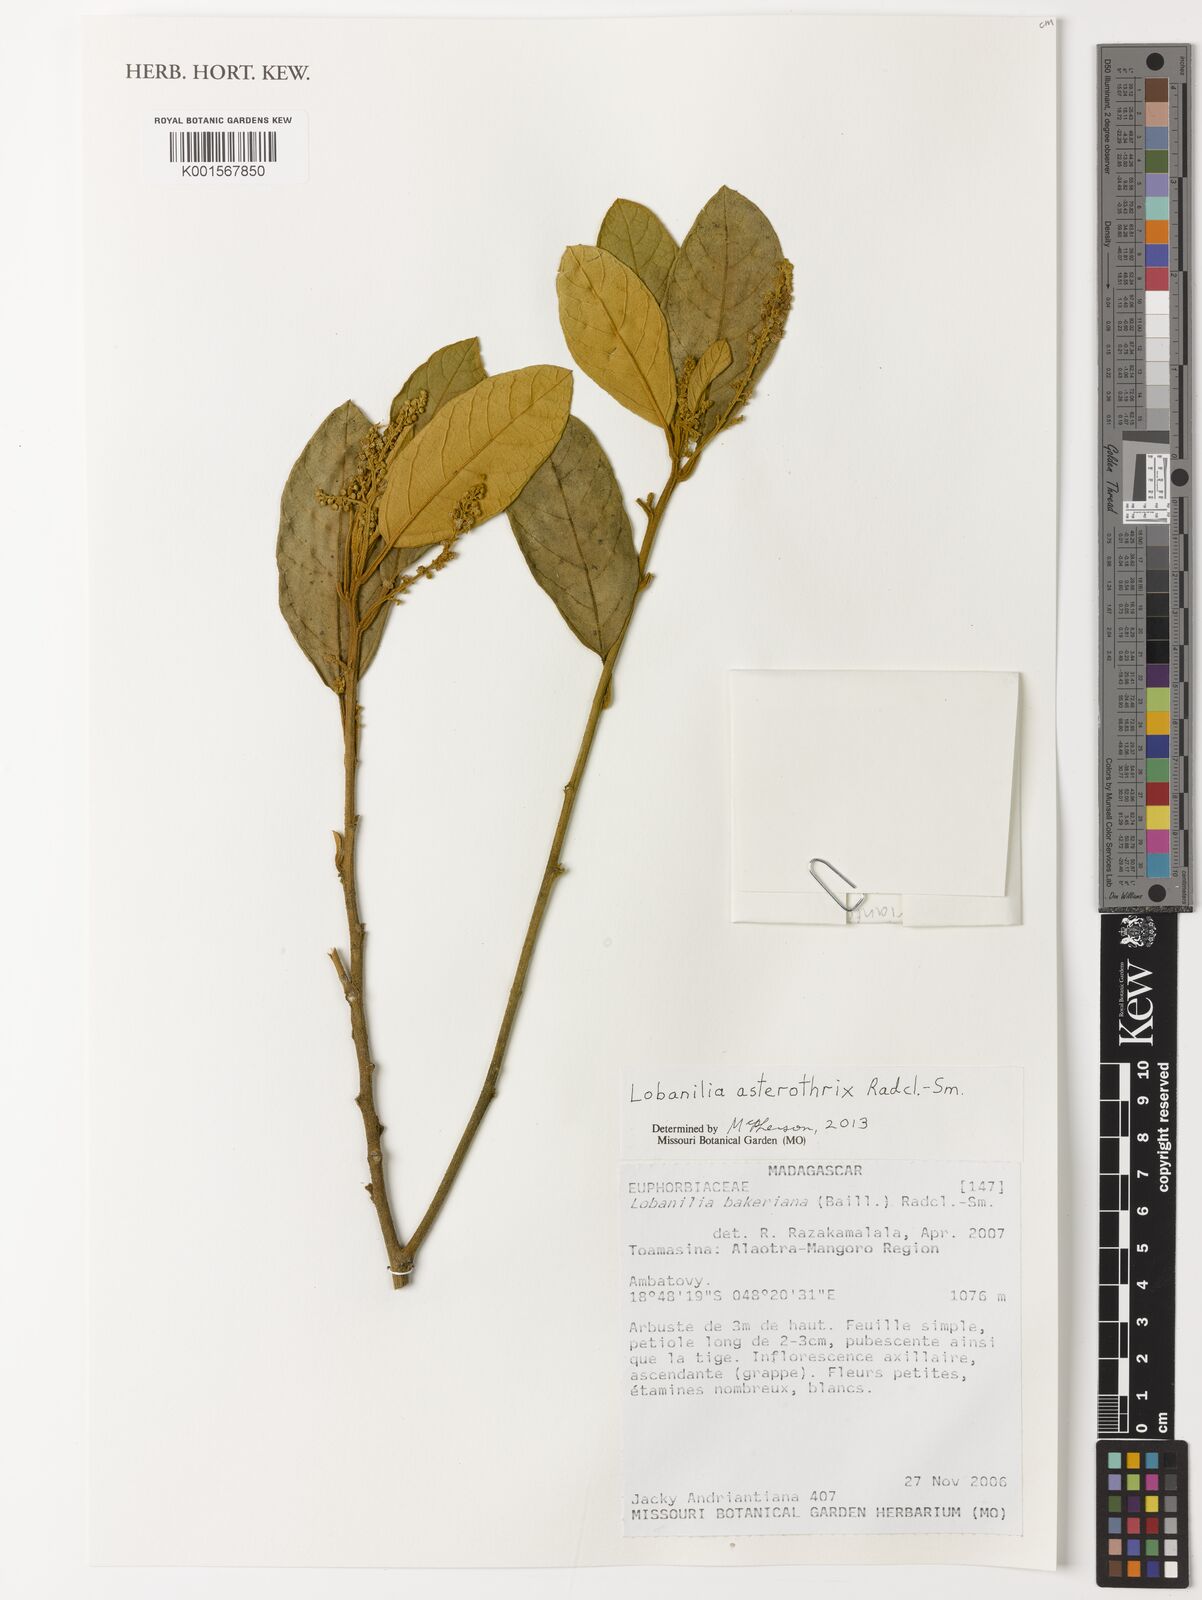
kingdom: Plantae
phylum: Tracheophyta
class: Magnoliopsida
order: Malpighiales
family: Euphorbiaceae
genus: Lobanilia
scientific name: Lobanilia asterothrix
